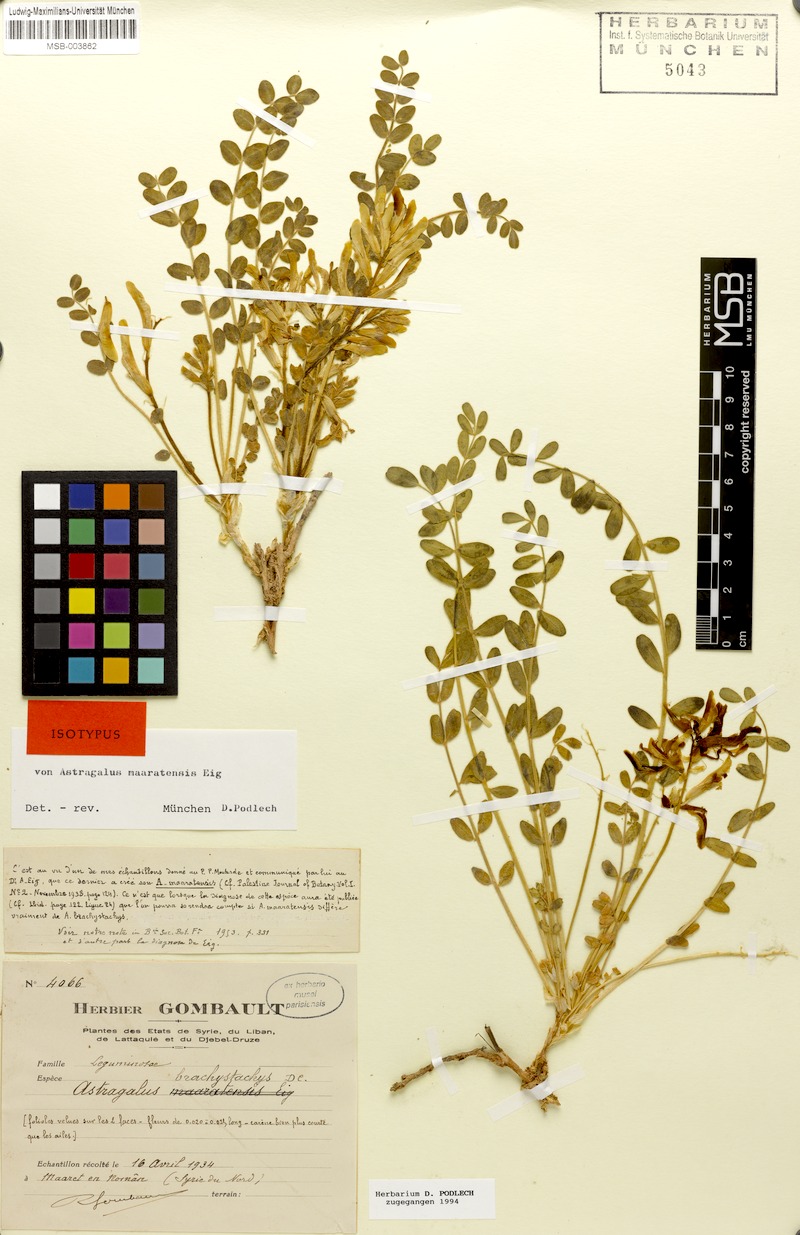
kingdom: Plantae
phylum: Tracheophyta
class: Magnoliopsida
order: Fabales
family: Fabaceae
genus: Astragalus
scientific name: Astragalus brachystachys
